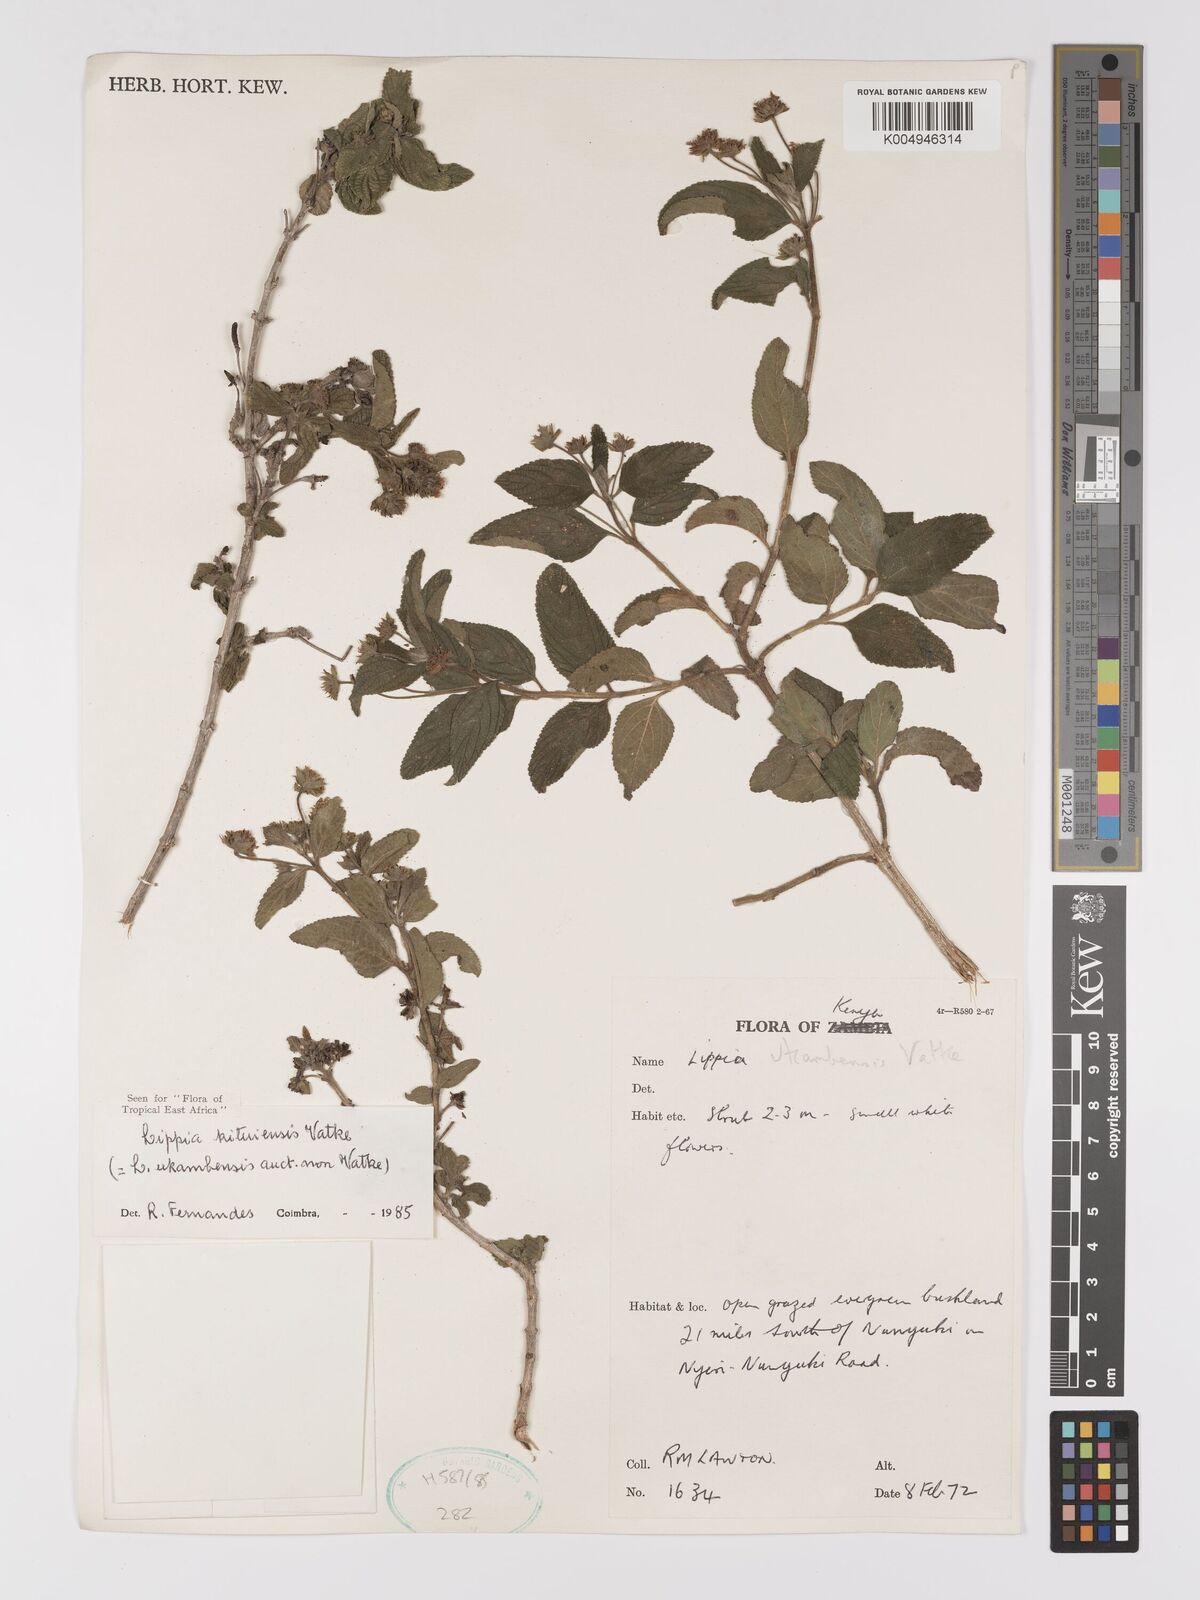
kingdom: Plantae
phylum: Tracheophyta
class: Magnoliopsida
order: Lamiales
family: Verbenaceae
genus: Lippia
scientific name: Lippia kituiensis
